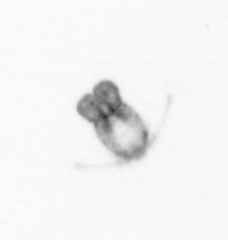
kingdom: Animalia
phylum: Arthropoda
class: Copepoda
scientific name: Copepoda
